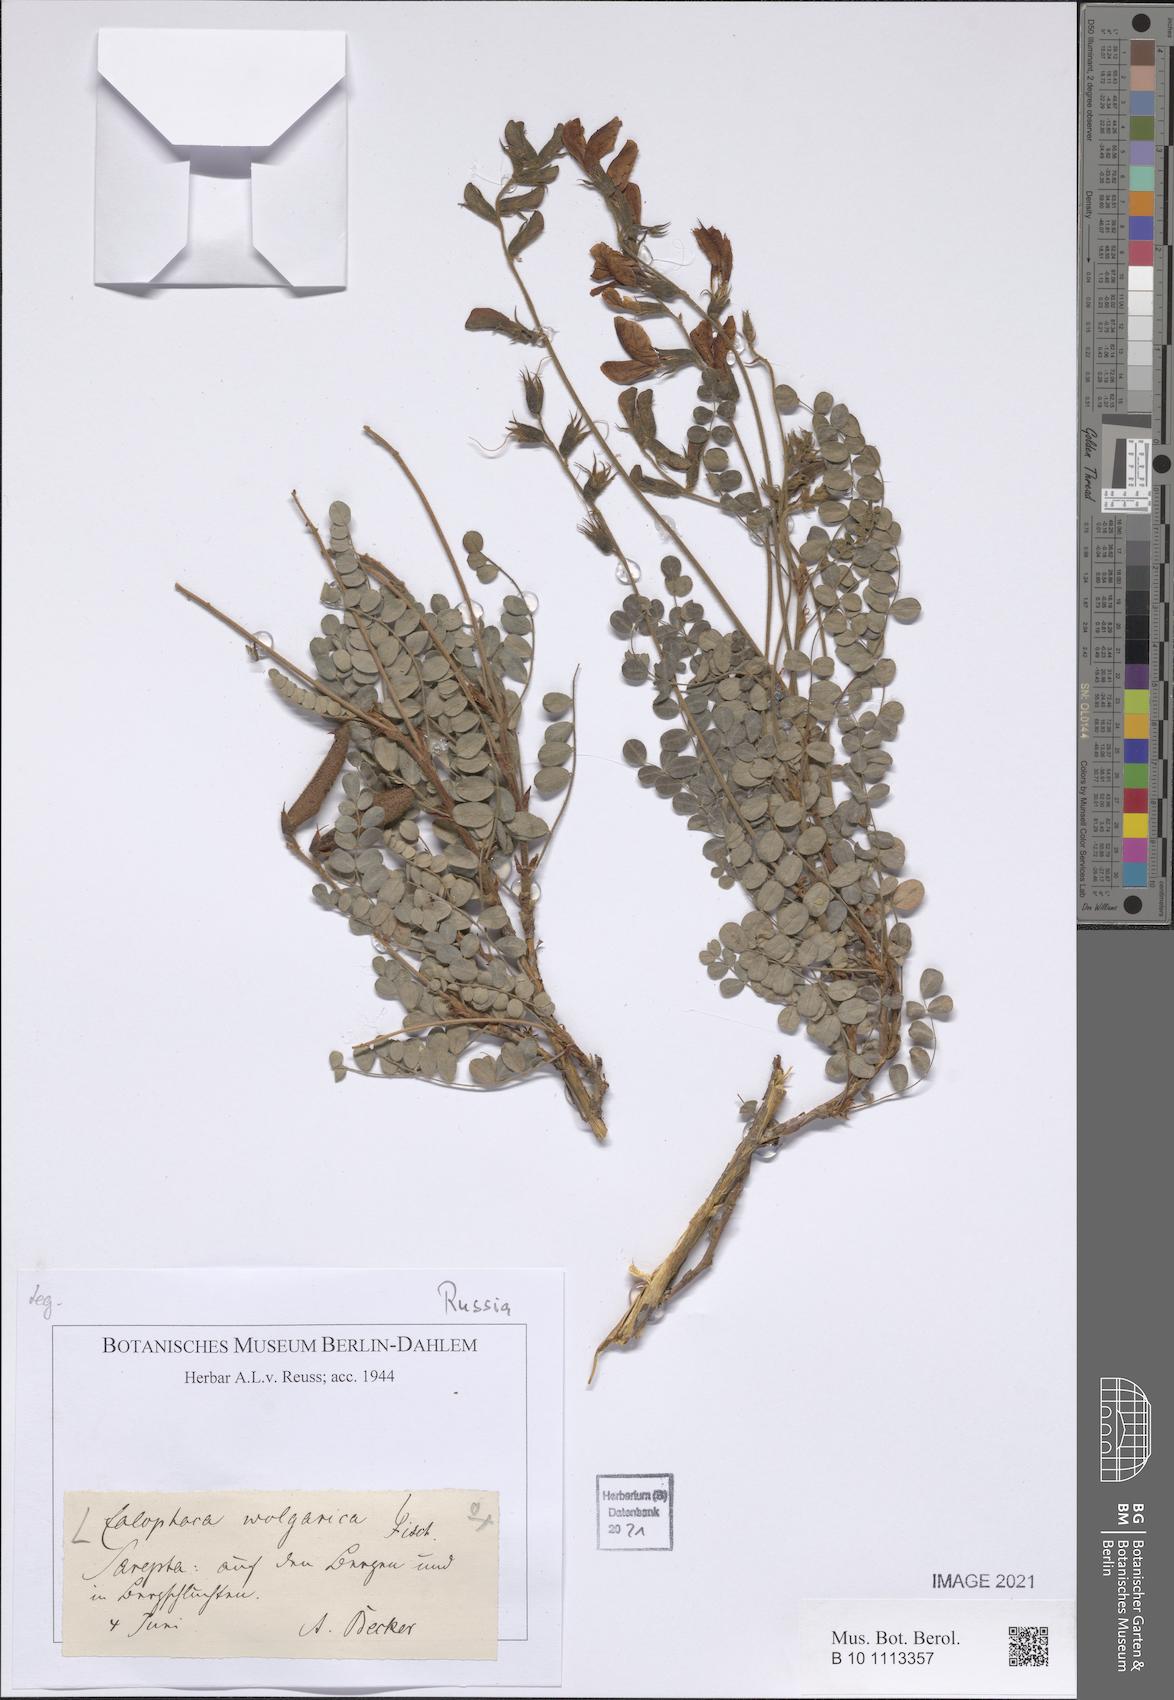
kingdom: Plantae
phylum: Tracheophyta
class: Magnoliopsida
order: Fabales
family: Fabaceae
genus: Calophaca
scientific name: Calophaca wolgarica
